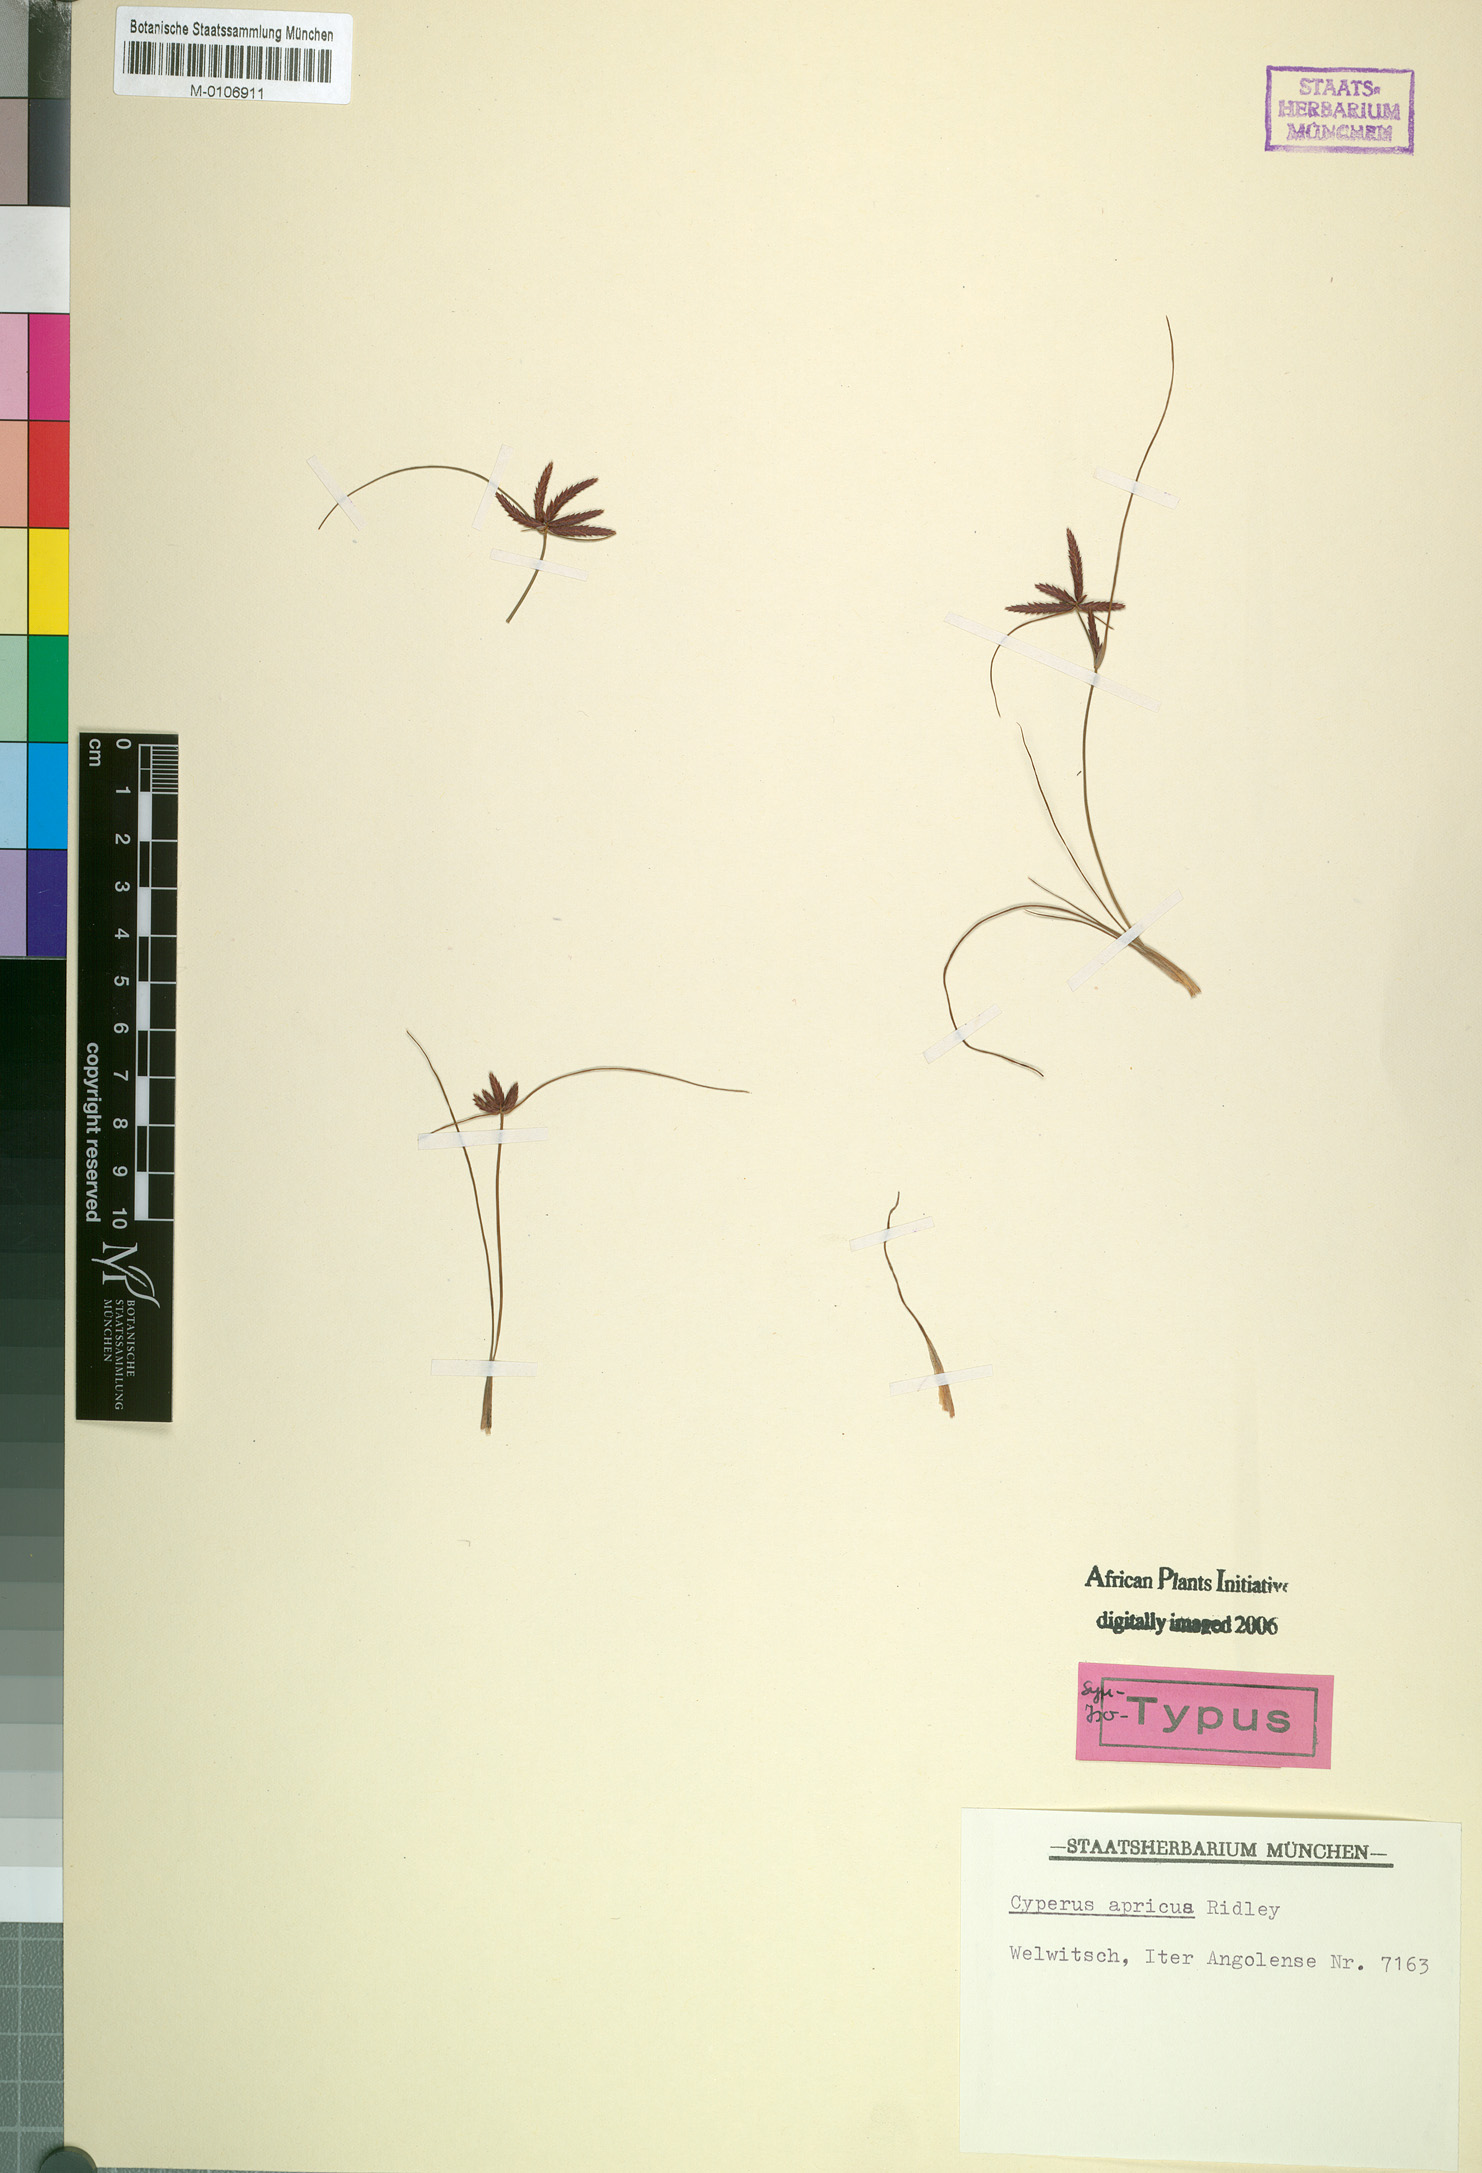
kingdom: Plantae
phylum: Tracheophyta
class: Liliopsida
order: Poales
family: Cyperaceae
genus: Cyperus
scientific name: Cyperus semitrifidus
